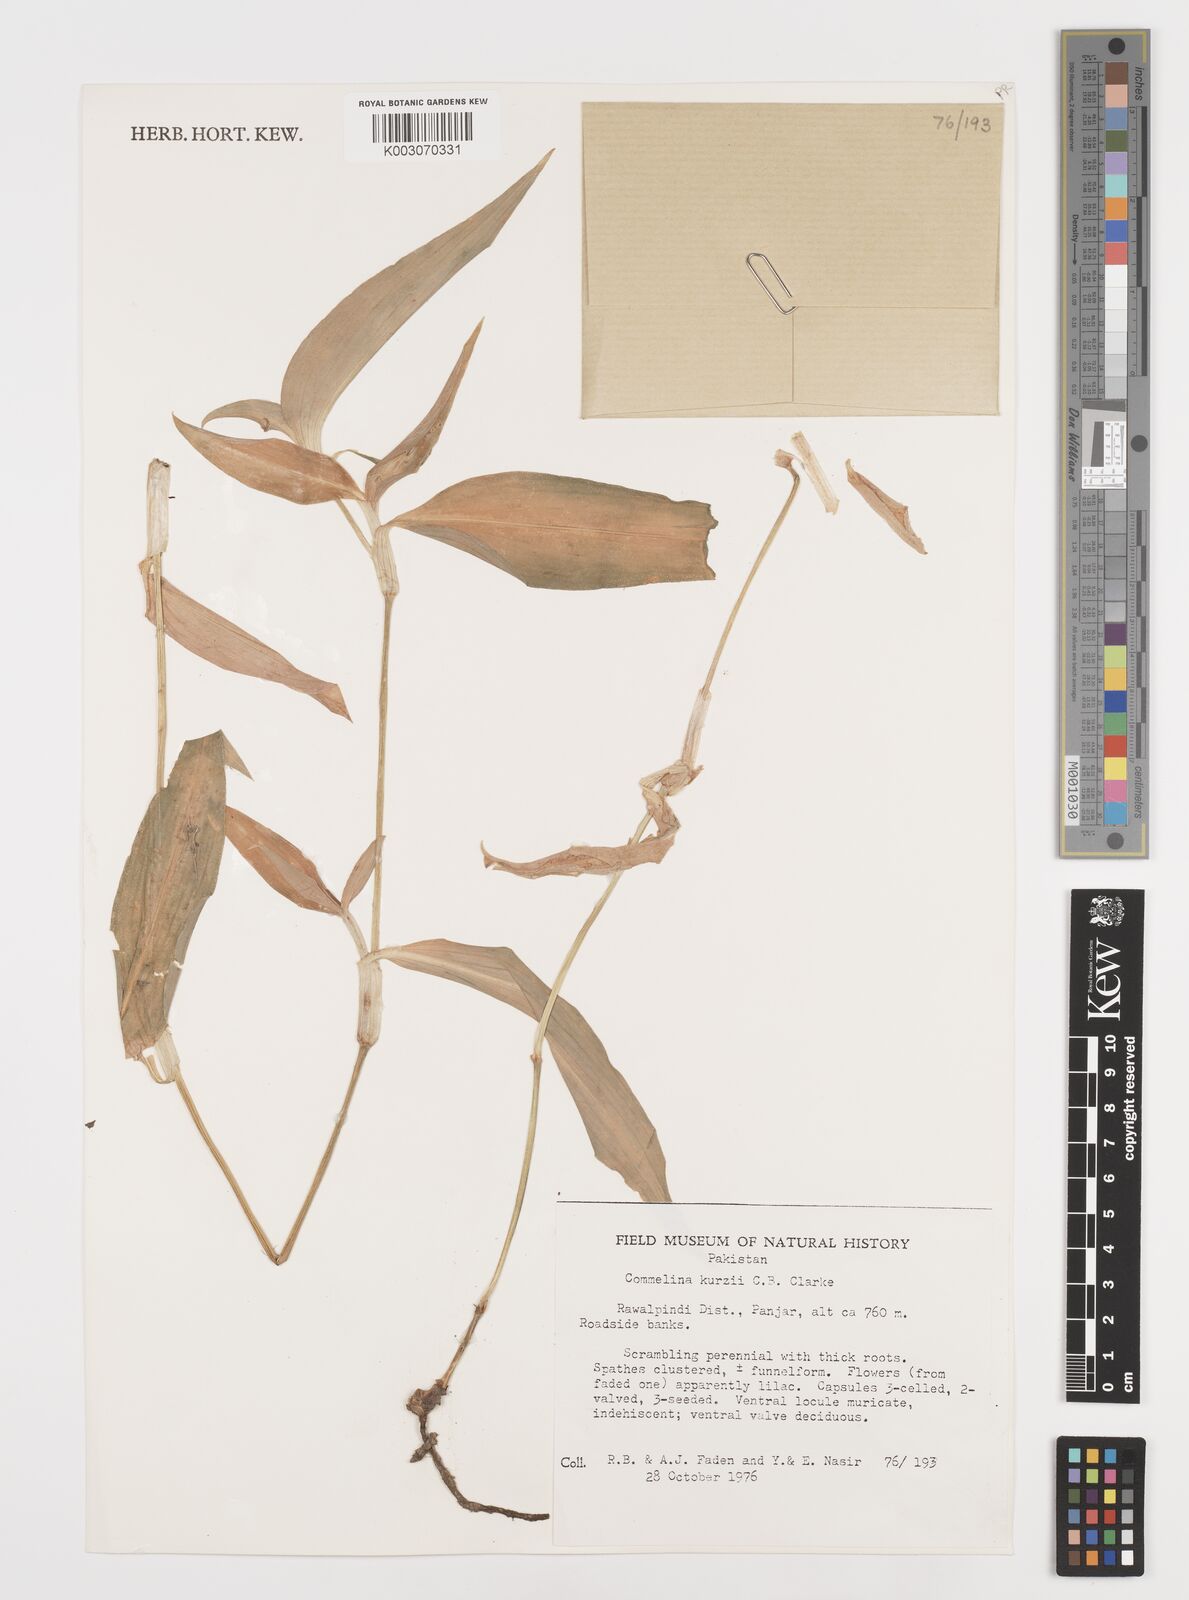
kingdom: Plantae
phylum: Tracheophyta
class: Liliopsida
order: Commelinales
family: Commelinaceae
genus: Commelina
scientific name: Commelina undulata
